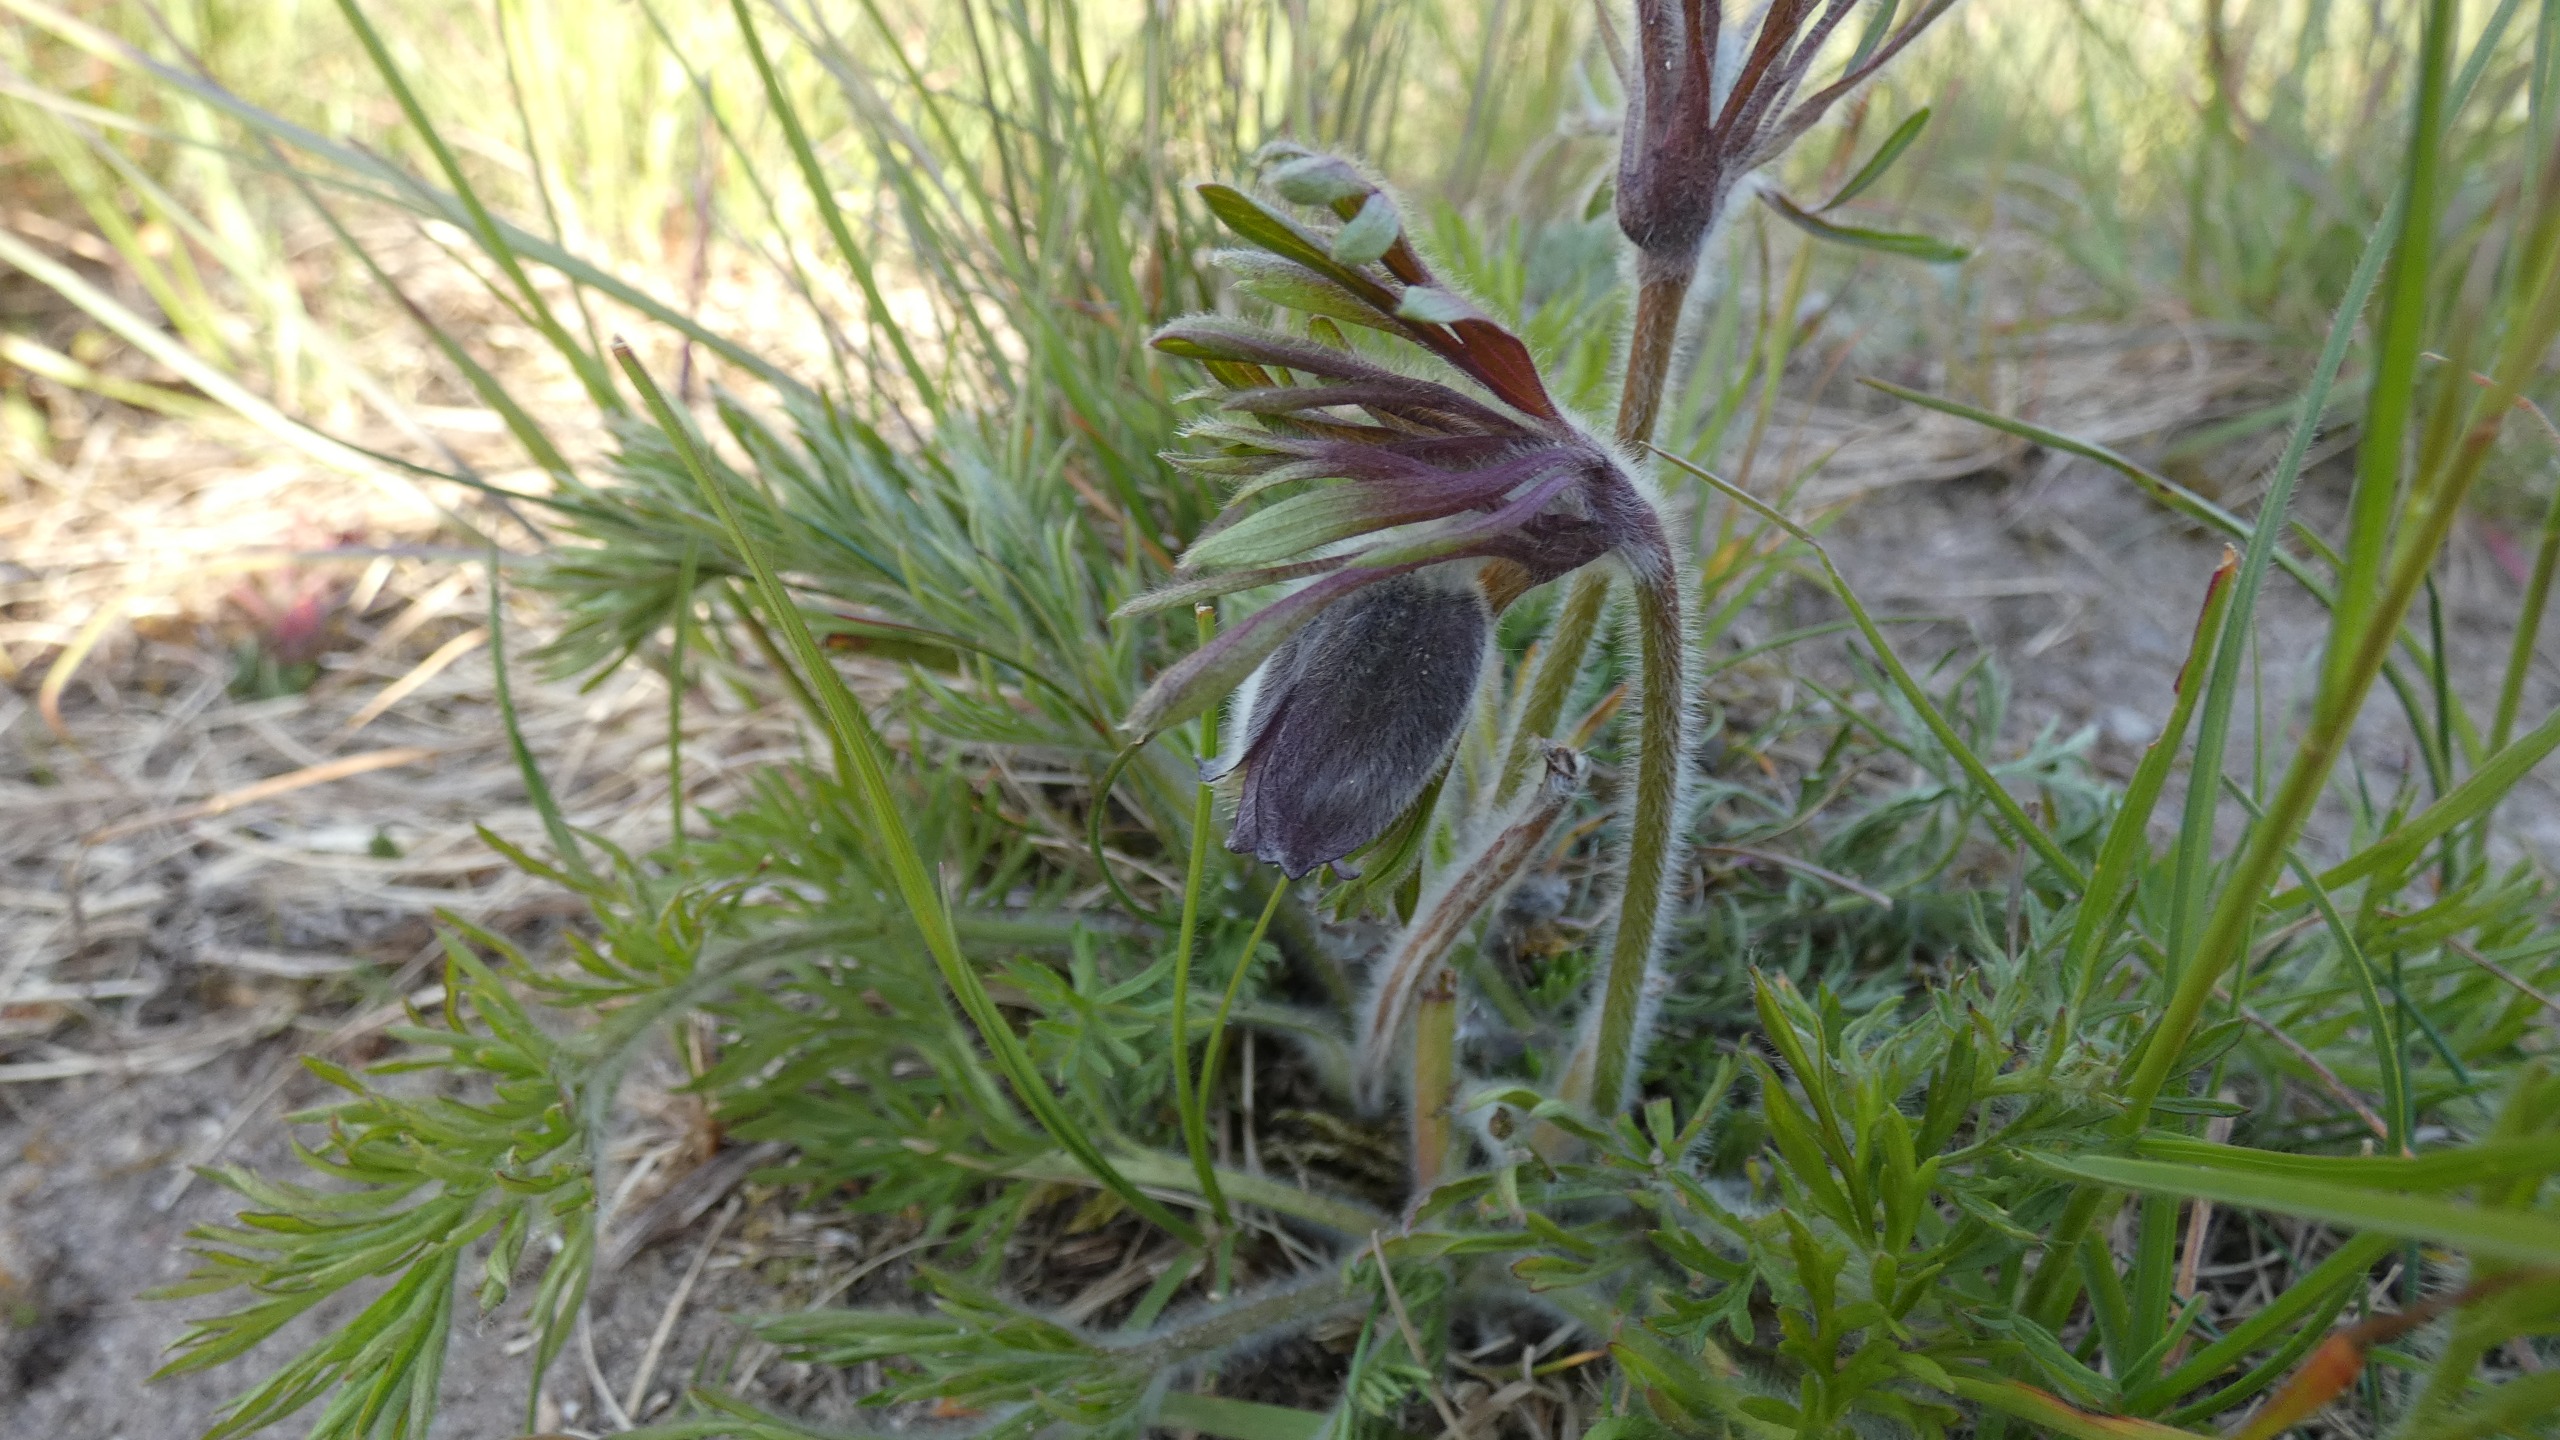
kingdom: Plantae
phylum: Tracheophyta
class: Magnoliopsida
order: Ranunculales
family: Ranunculaceae
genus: Pulsatilla
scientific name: Pulsatilla pratensis
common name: Nikkende kobjælde
